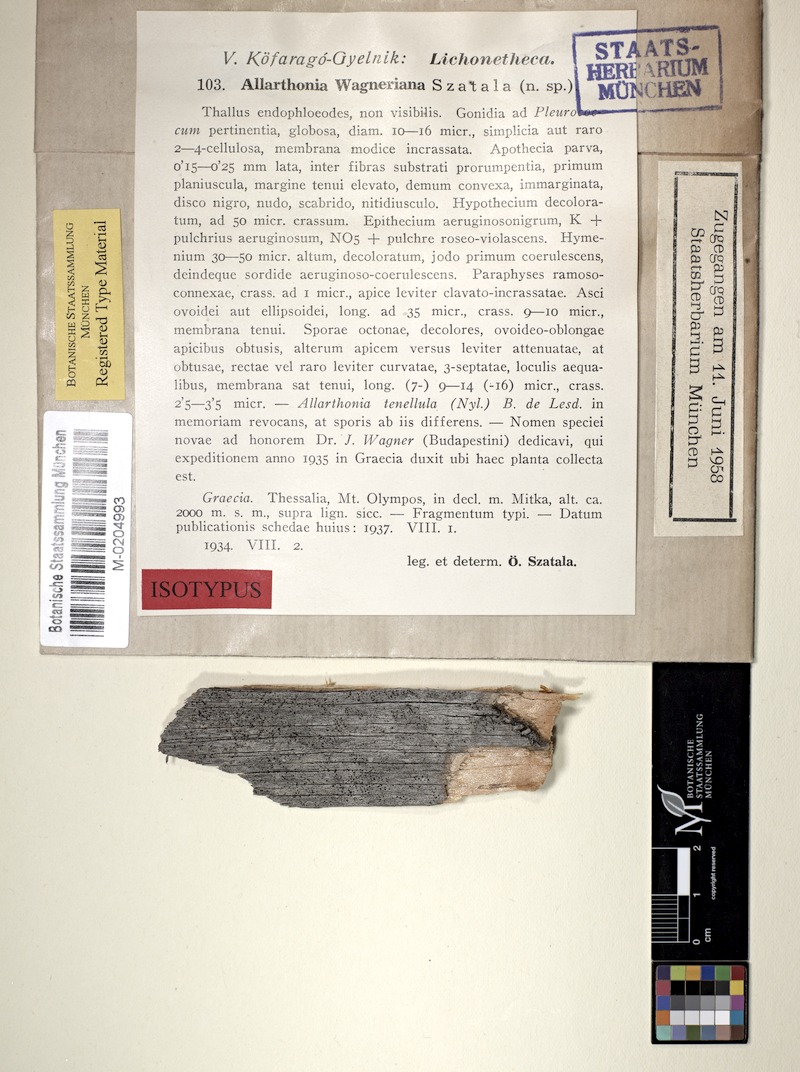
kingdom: Fungi
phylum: Ascomycota
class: Arthoniomycetes
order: Arthoniales
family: Arthoniaceae
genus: Arthonia
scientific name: Arthonia
